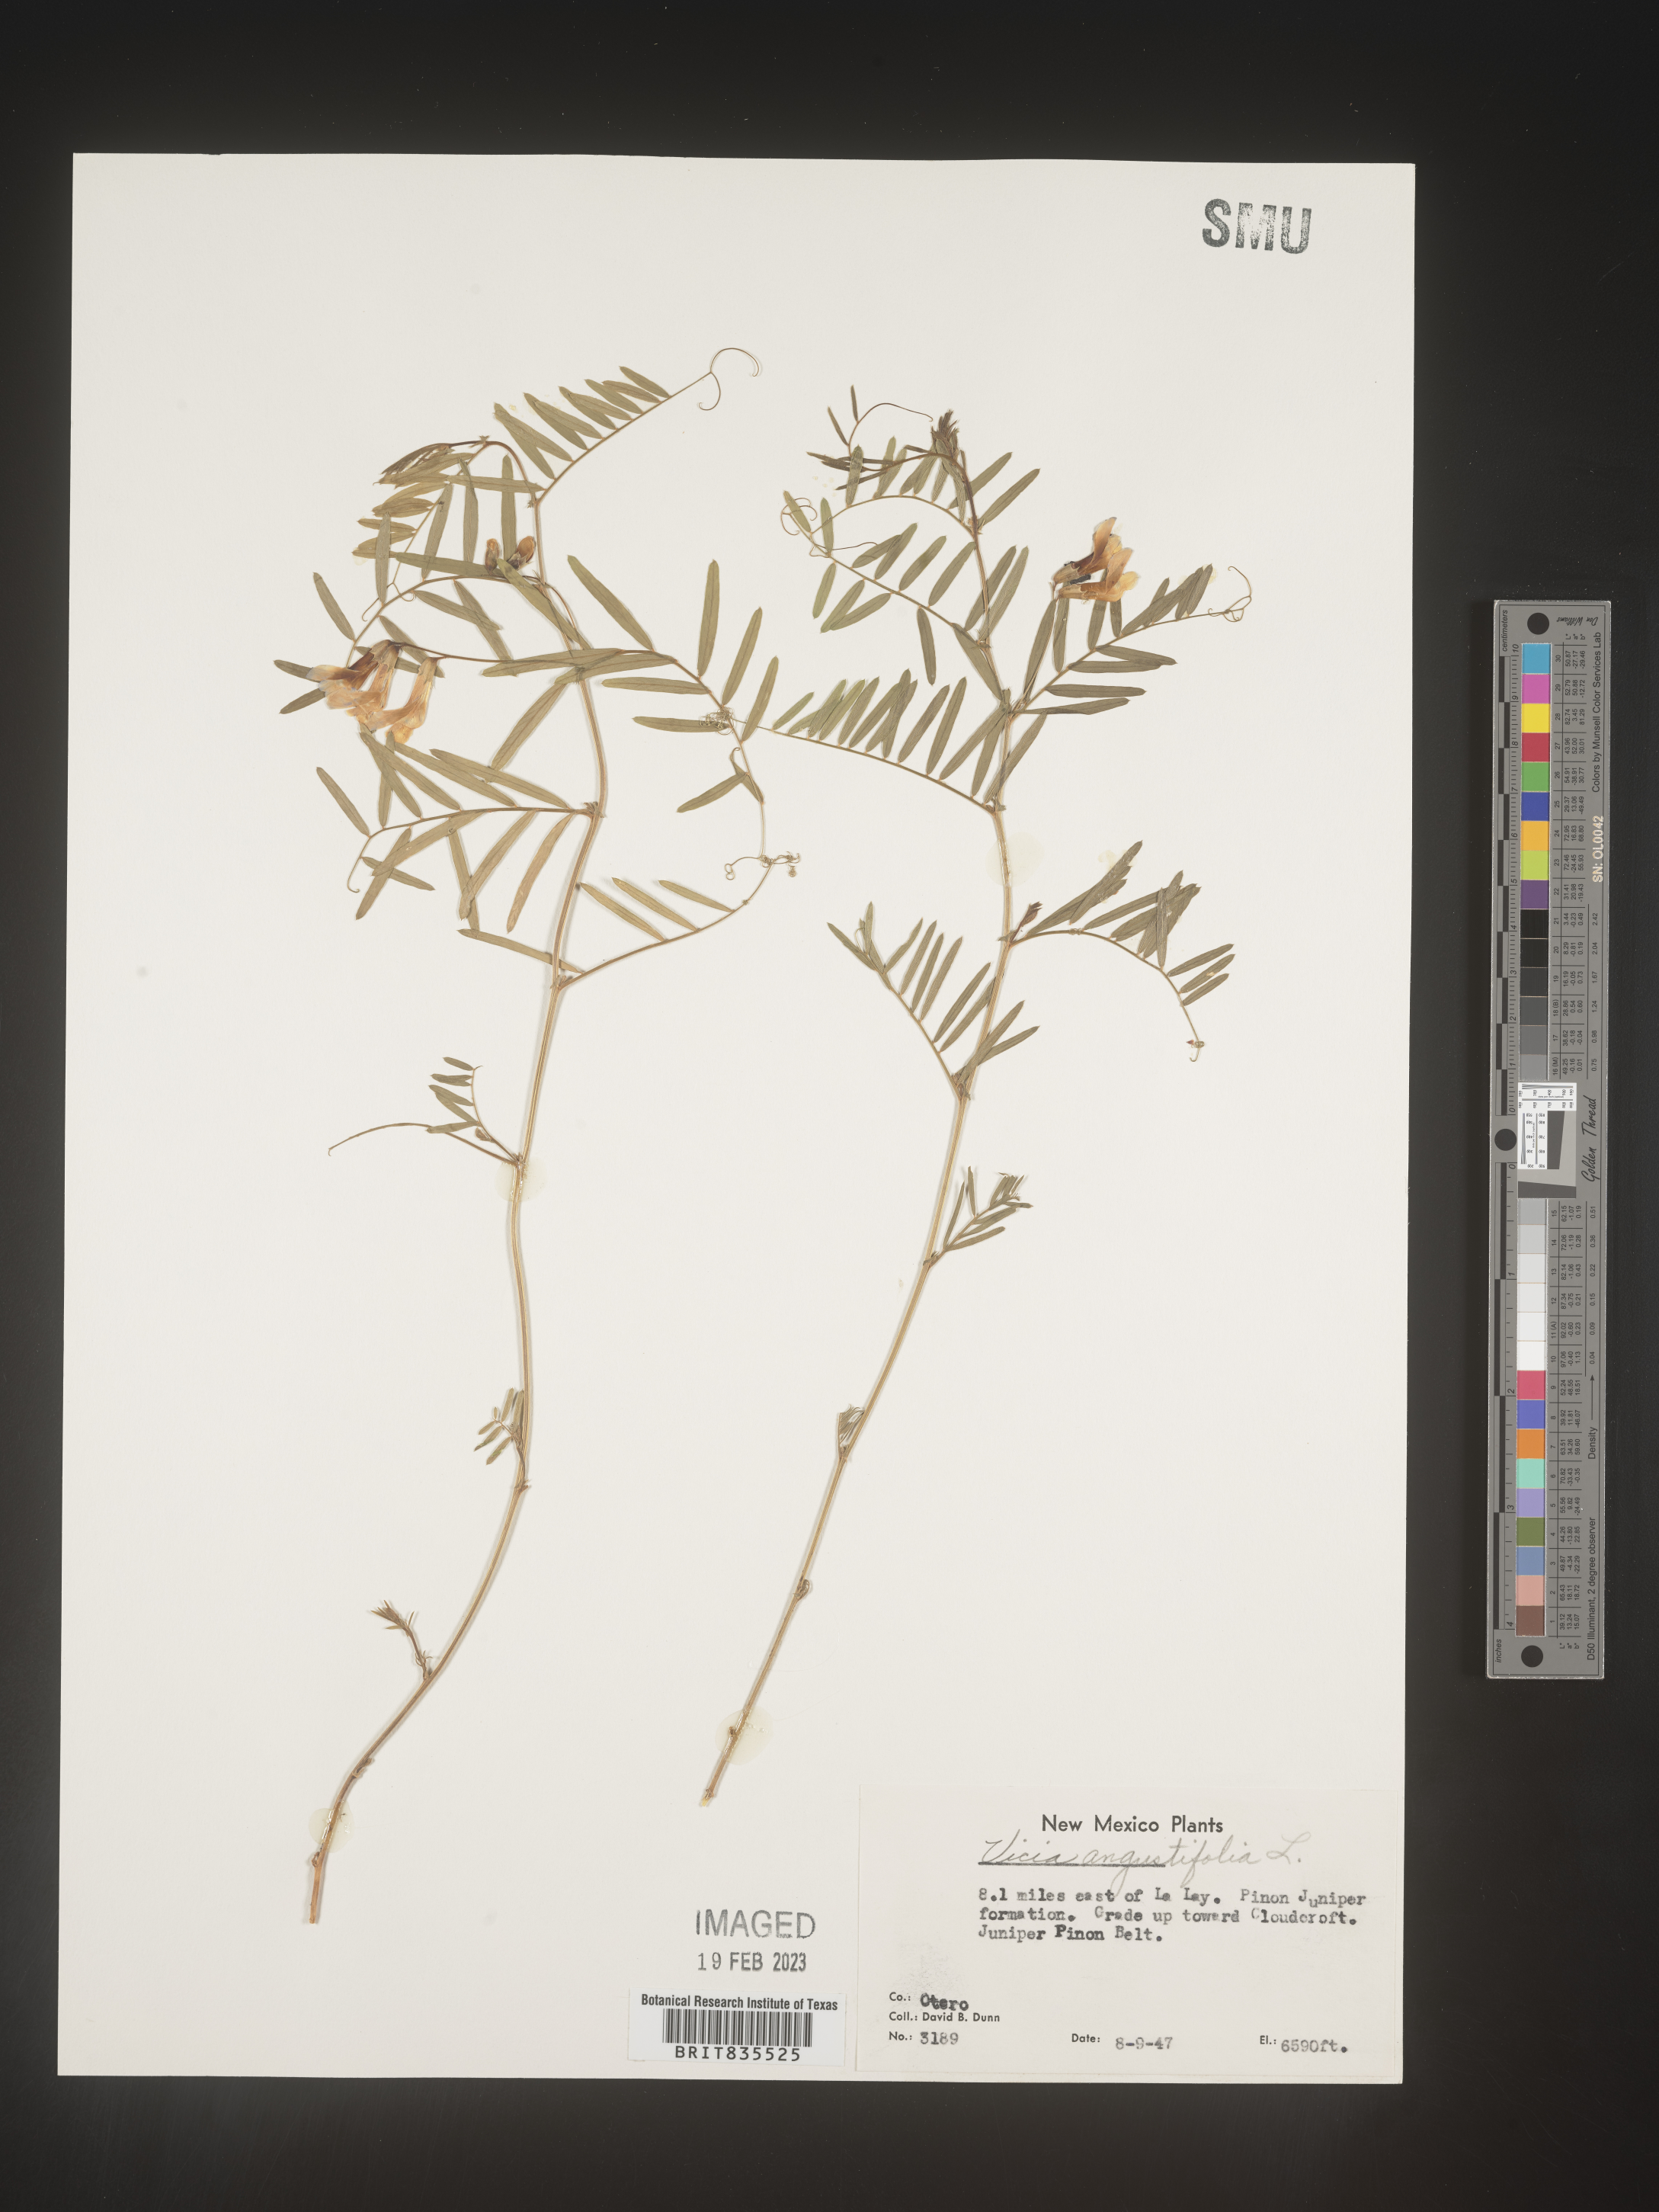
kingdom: Plantae
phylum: Tracheophyta
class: Magnoliopsida
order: Fabales
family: Fabaceae
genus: Vicia
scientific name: Vicia americana
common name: American vetch
